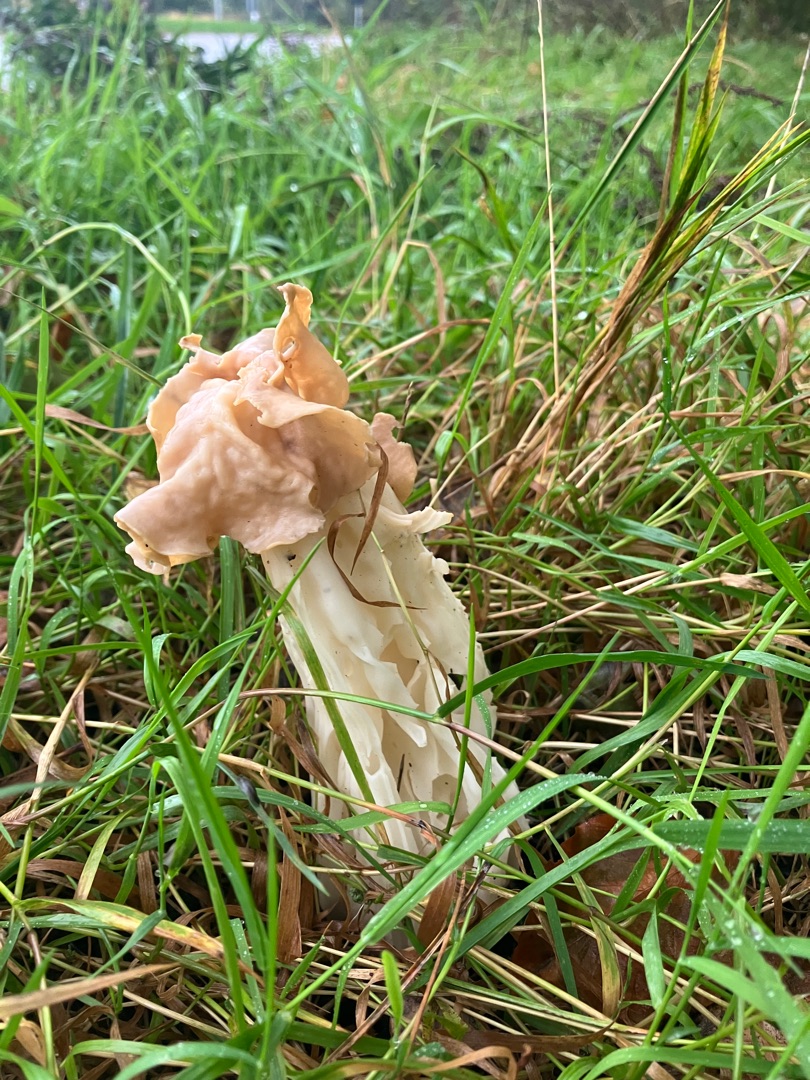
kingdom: Fungi
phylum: Ascomycota
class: Pezizomycetes
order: Pezizales
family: Helvellaceae
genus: Helvella
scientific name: Helvella crispa
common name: Kruset foldhat
